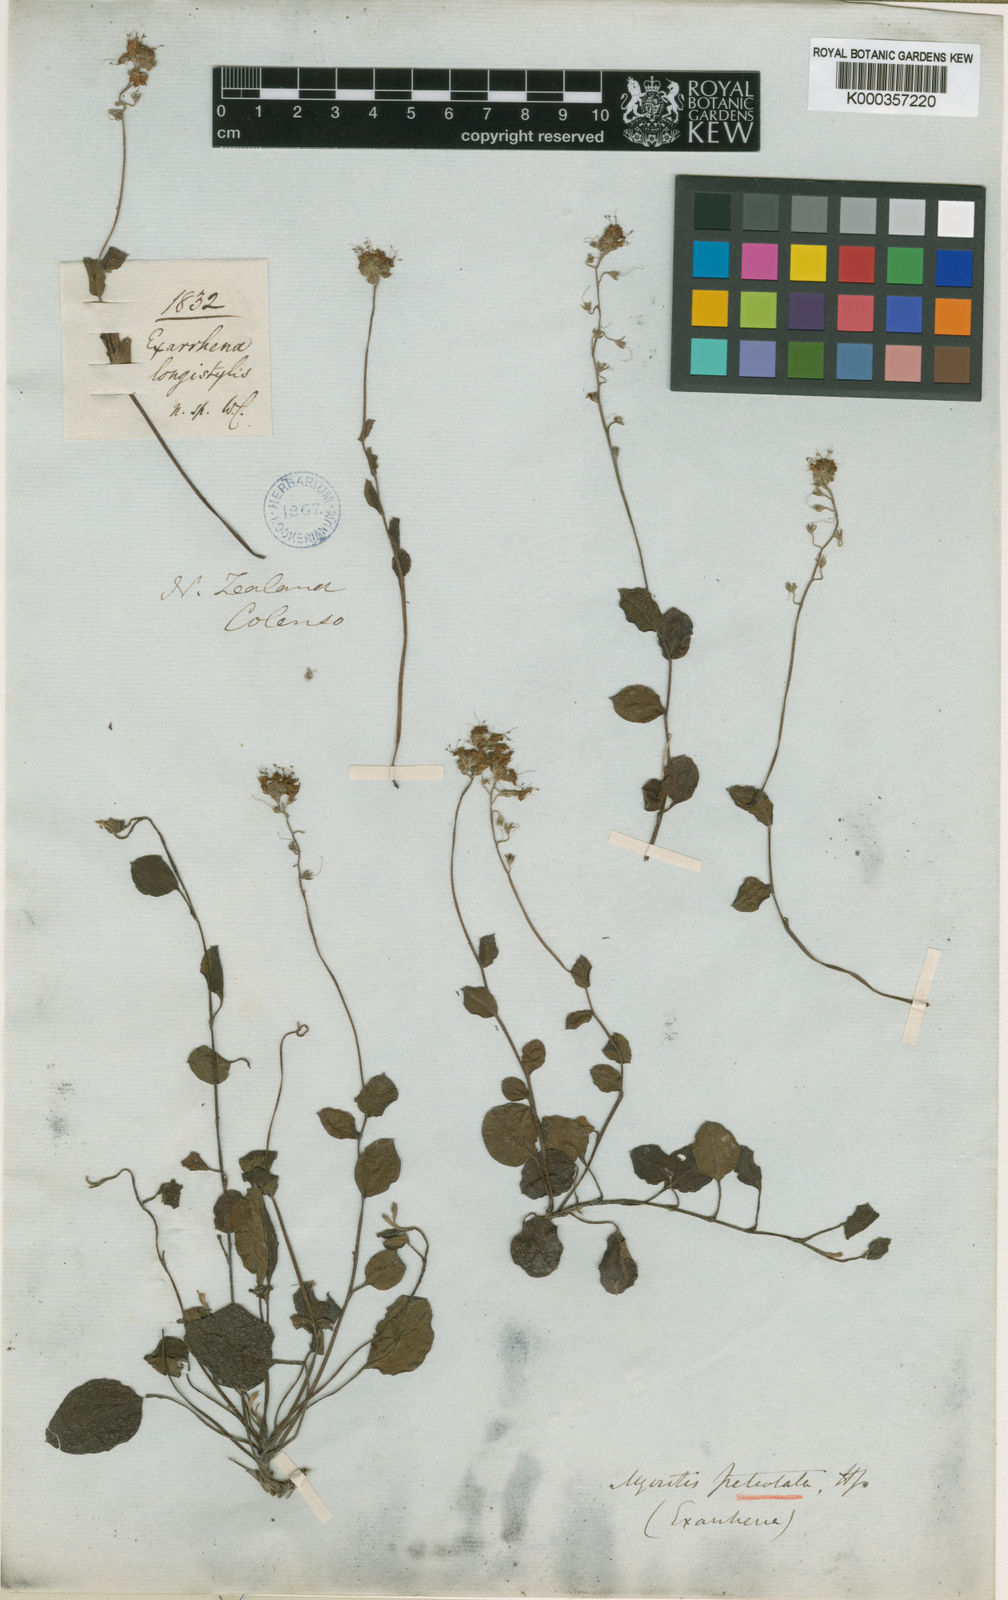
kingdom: Plantae
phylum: Tracheophyta
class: Magnoliopsida
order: Boraginales
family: Boraginaceae
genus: Myosotis
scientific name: Myosotis petiolata
